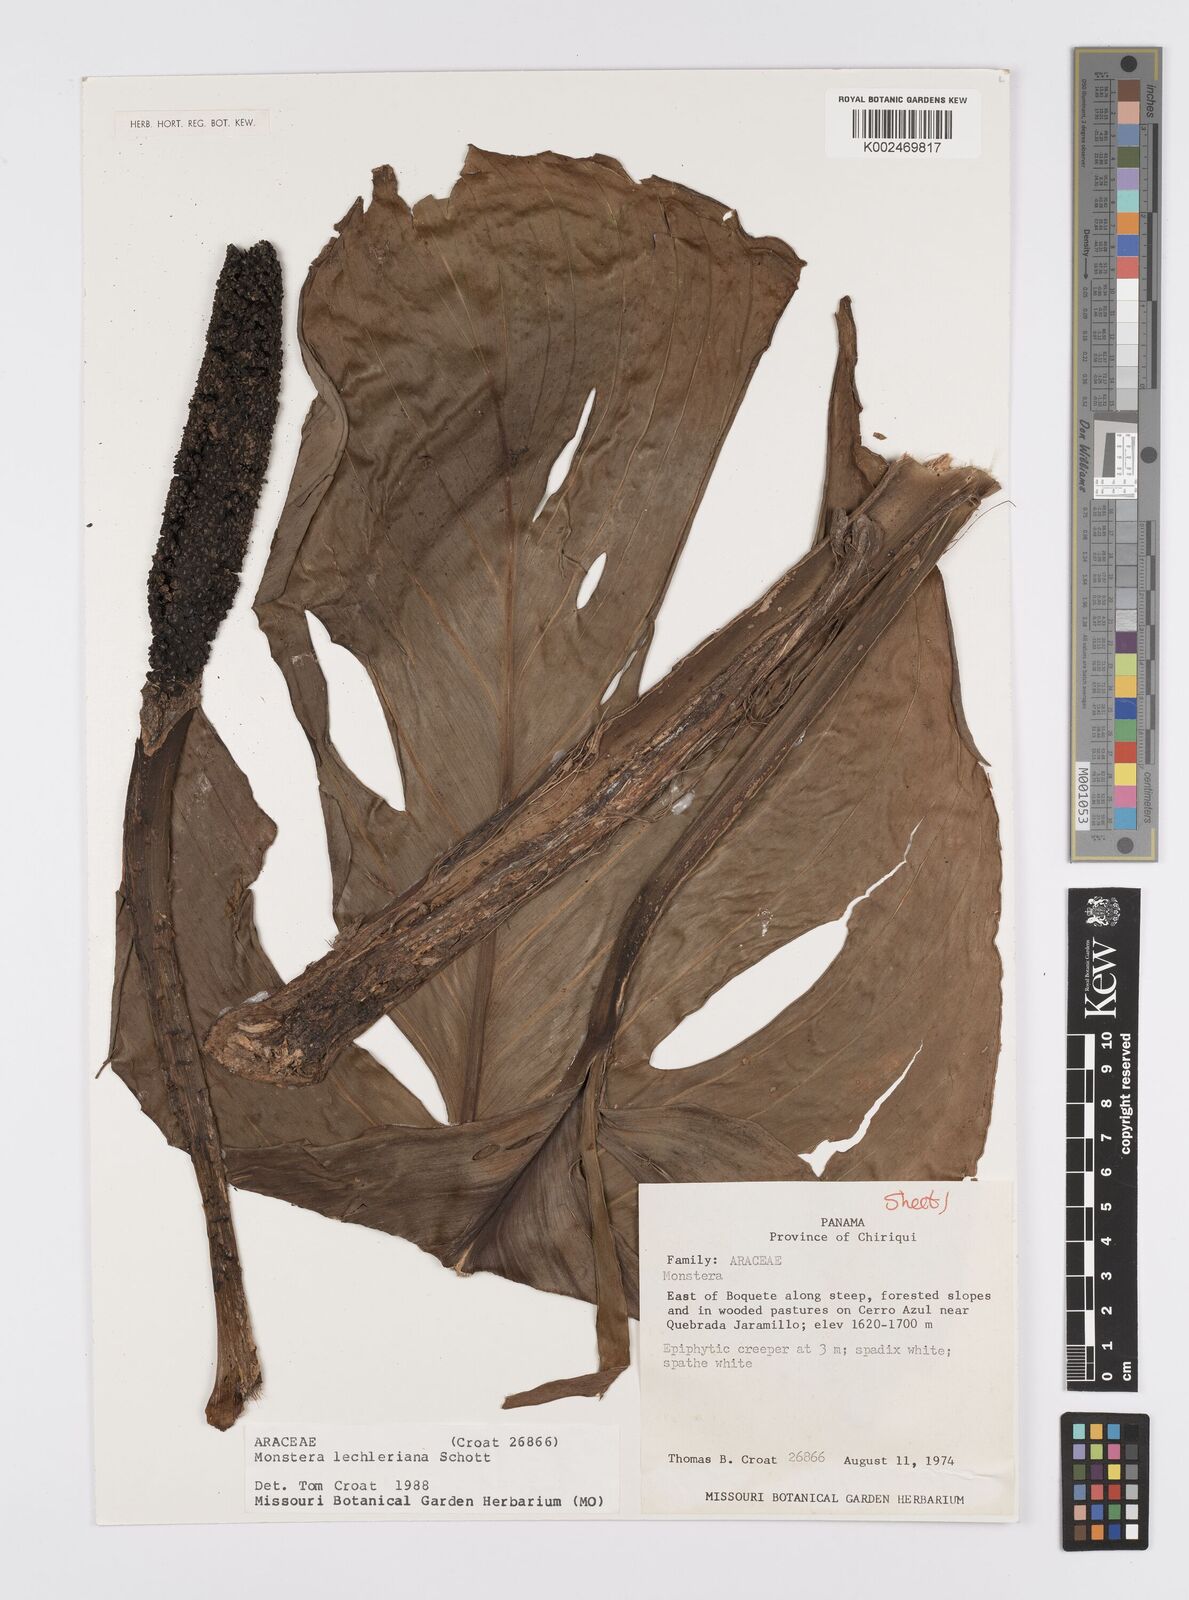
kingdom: Plantae
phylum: Tracheophyta
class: Liliopsida
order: Alismatales
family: Araceae
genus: Monstera
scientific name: Monstera lechleriana
